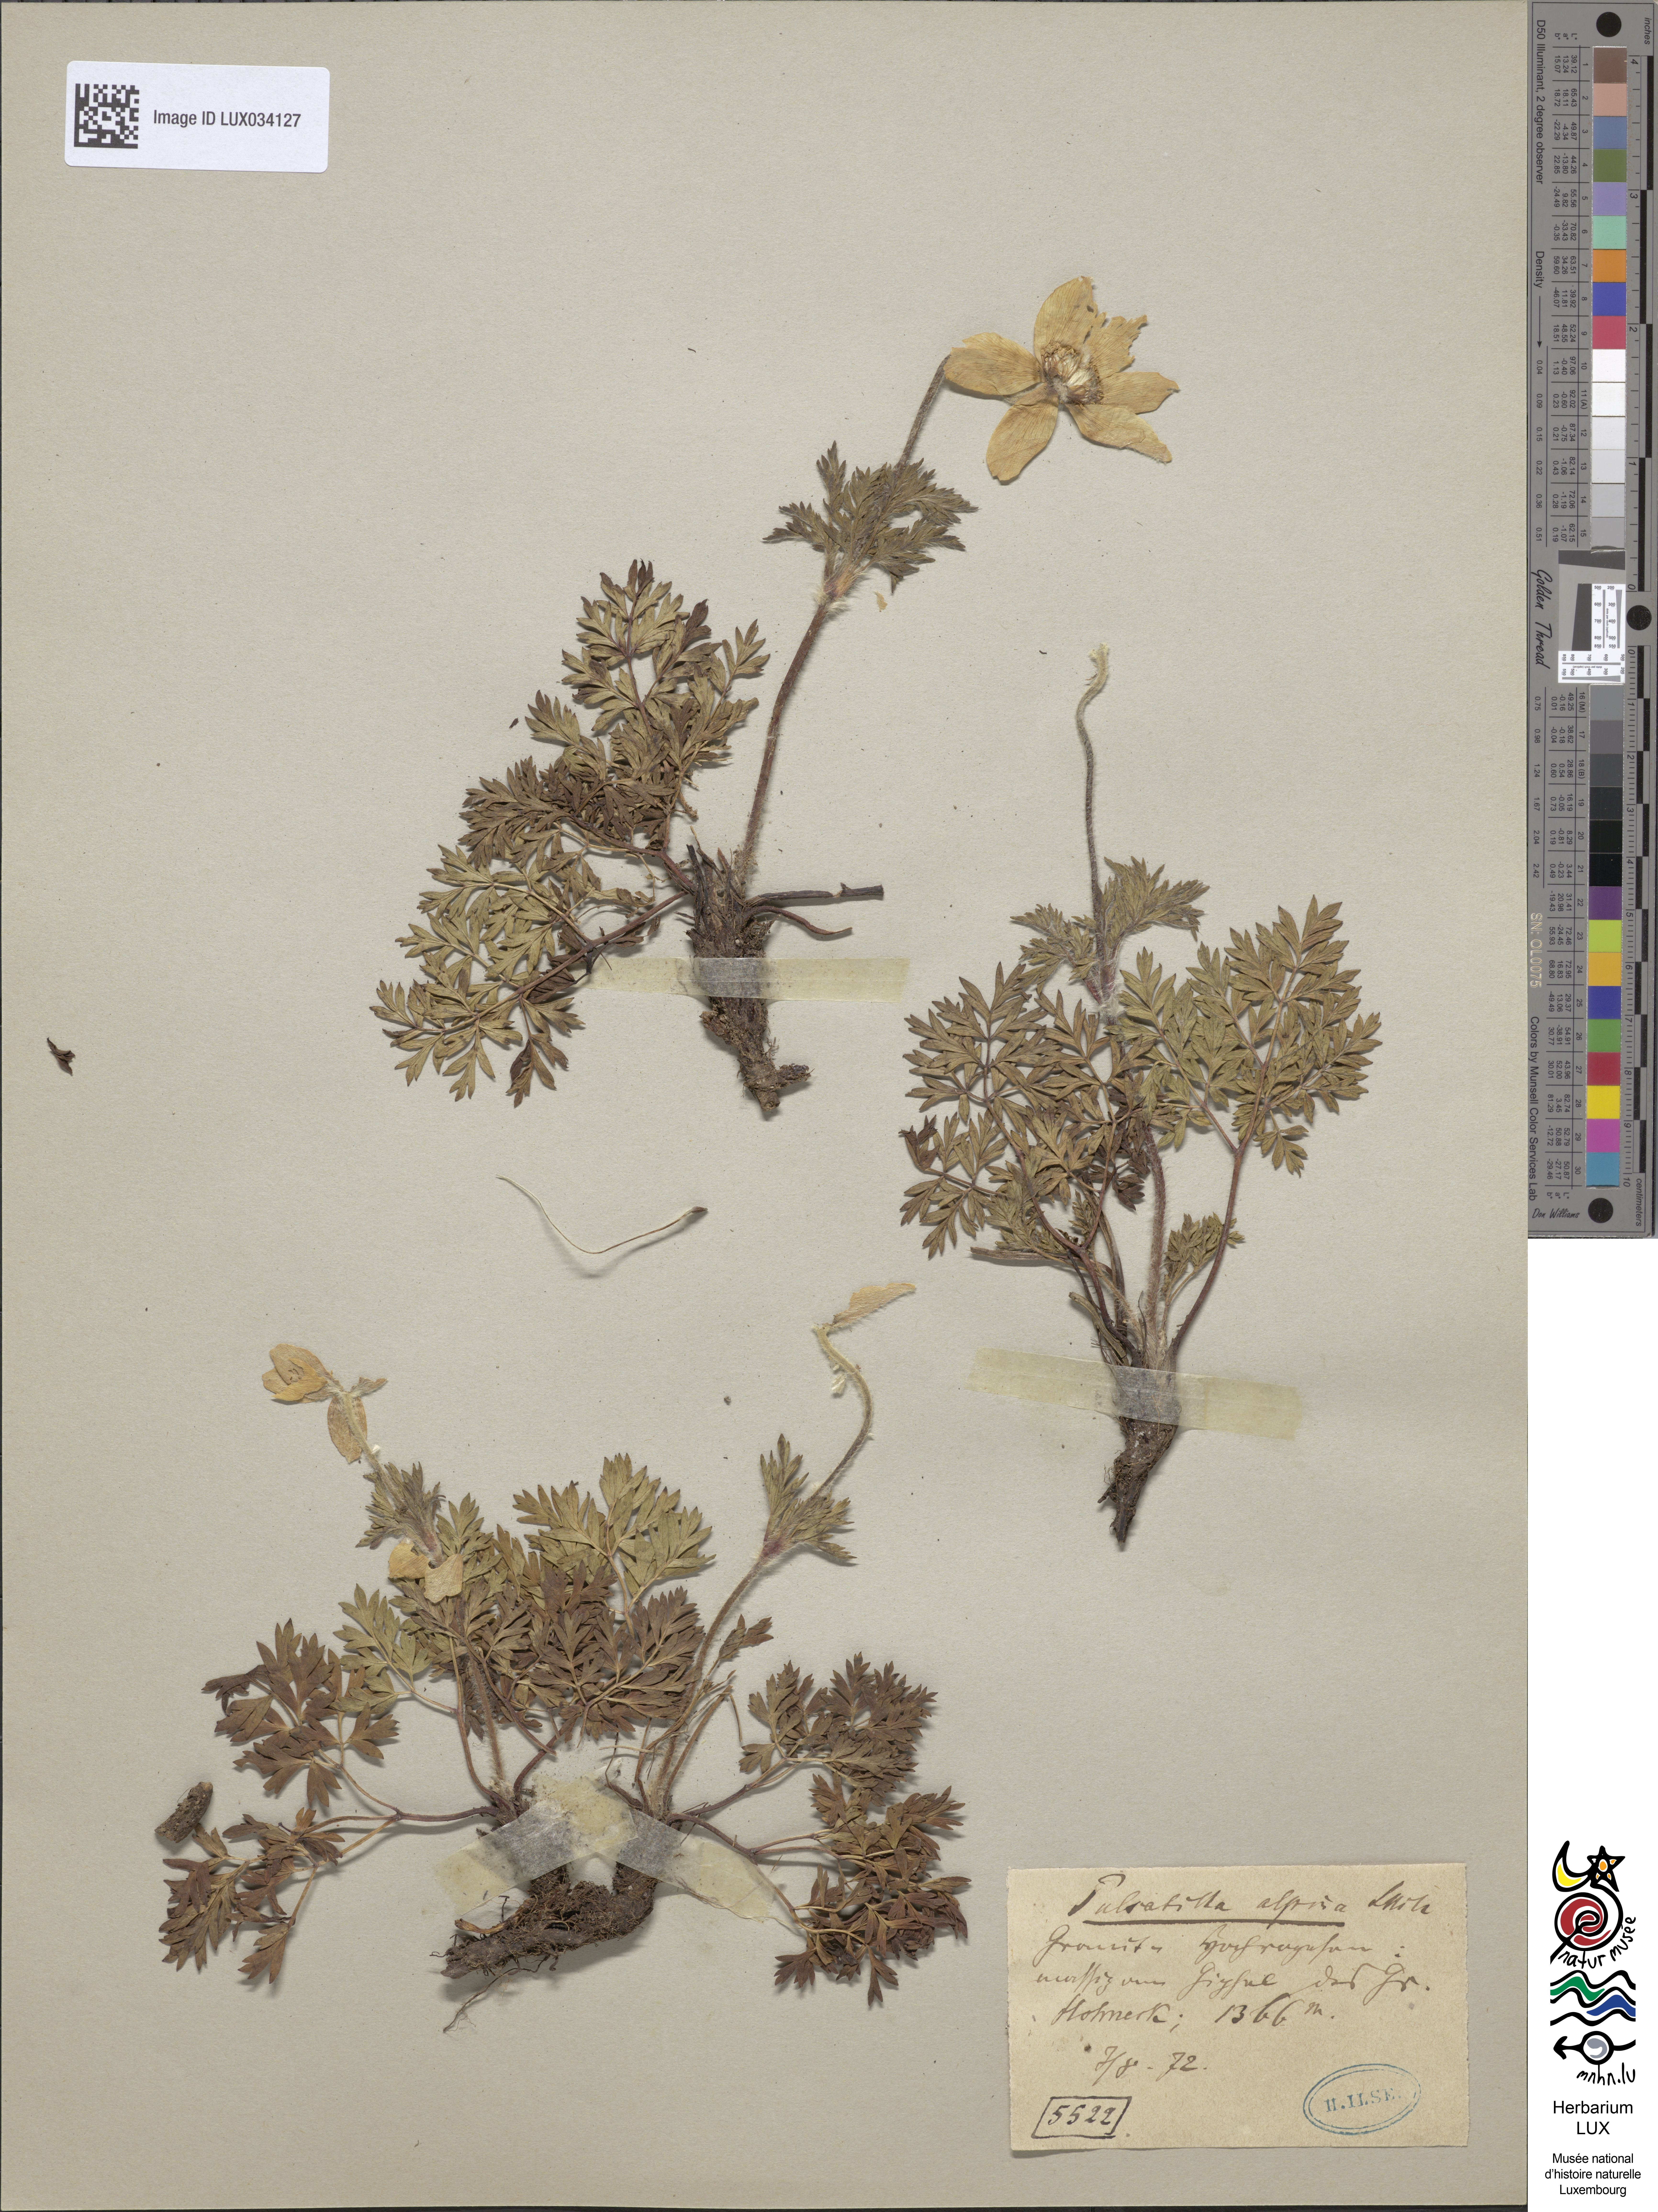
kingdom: Plantae
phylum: Tracheophyta
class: Magnoliopsida
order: Ranunculales
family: Ranunculaceae
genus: Pulsatilla
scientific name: Pulsatilla alpina
